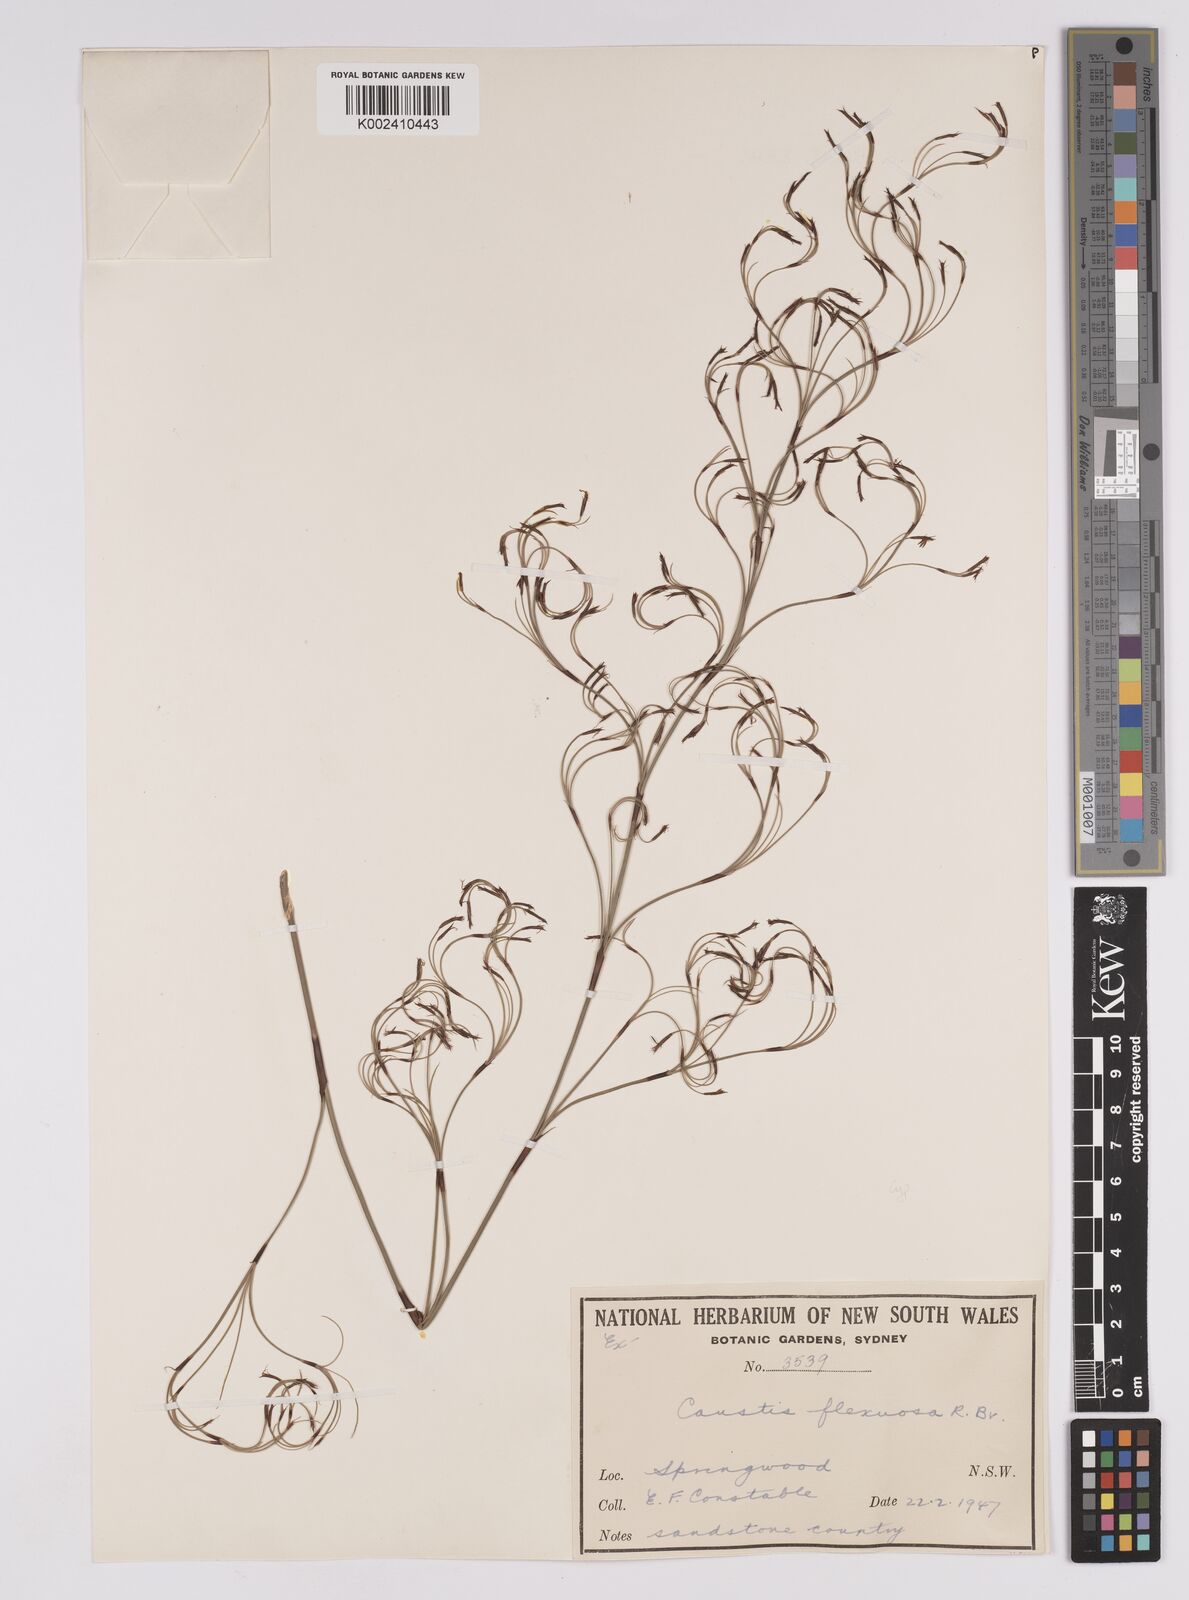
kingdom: Plantae
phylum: Tracheophyta
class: Liliopsida
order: Poales
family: Cyperaceae
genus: Caustis
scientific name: Caustis flexuosa
